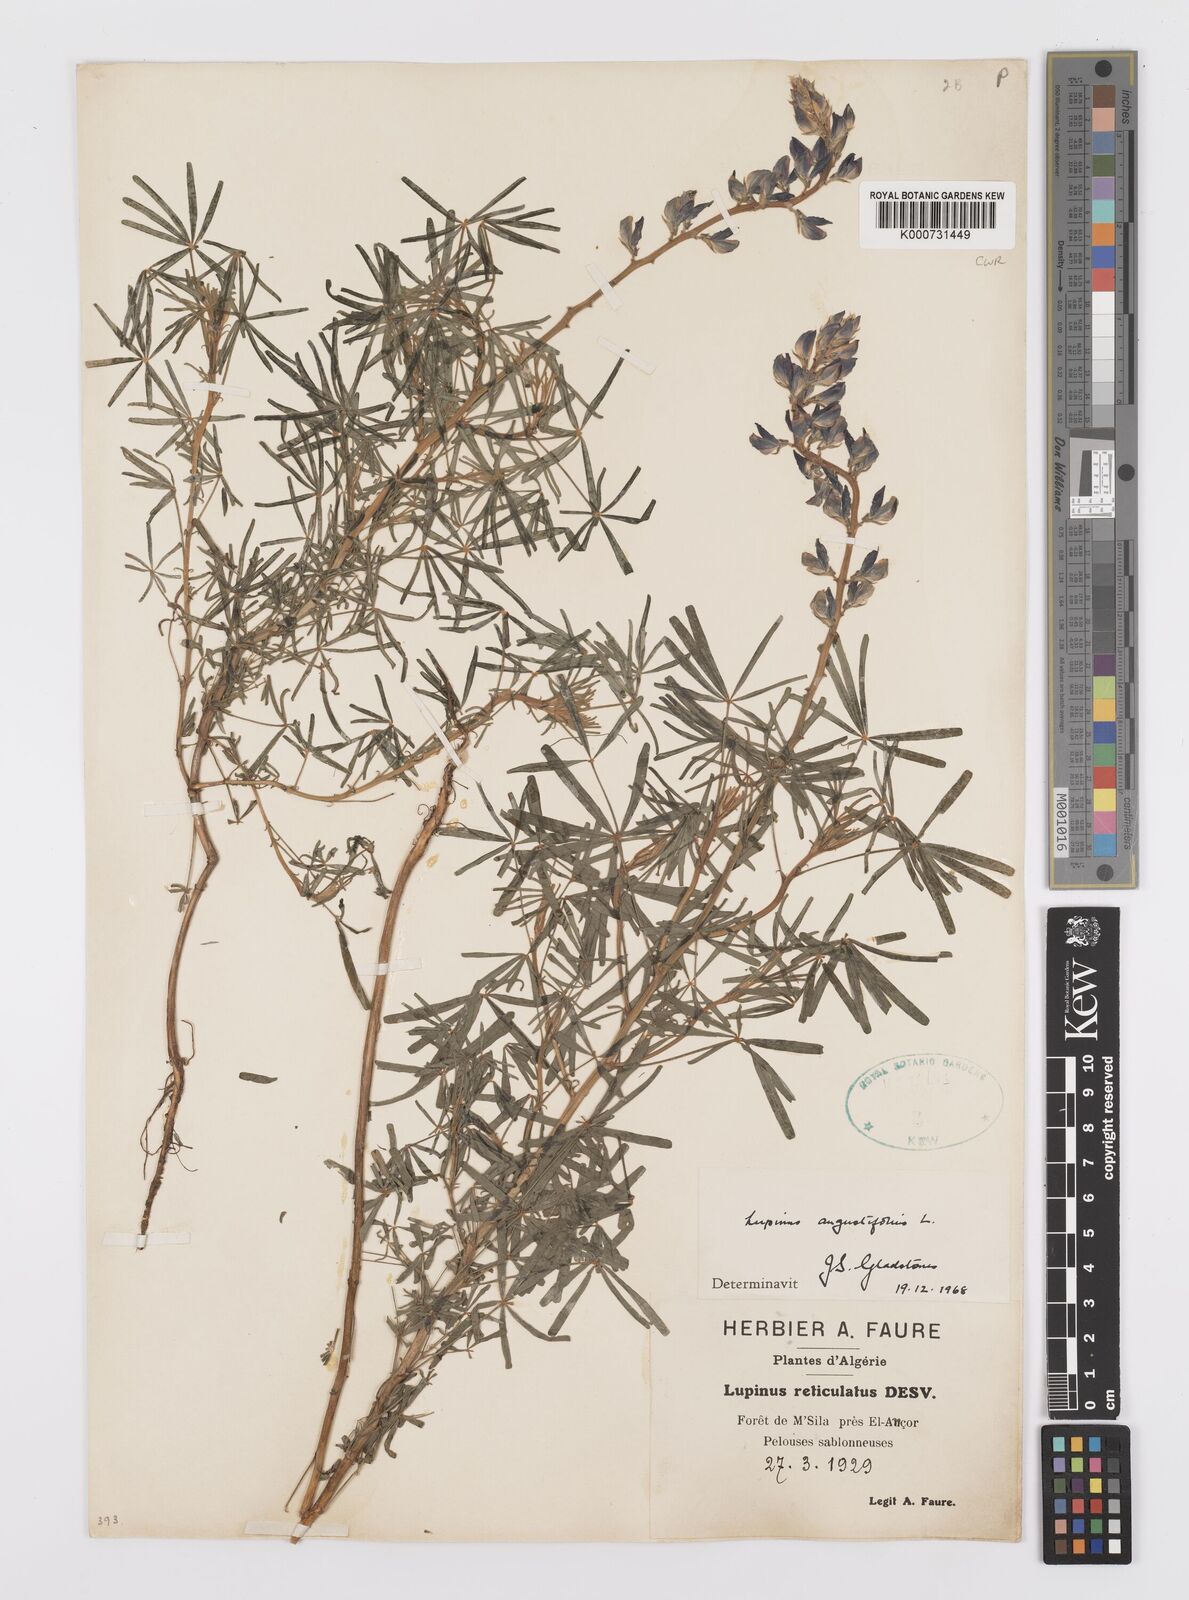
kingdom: Plantae
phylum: Tracheophyta
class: Magnoliopsida
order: Fabales
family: Fabaceae
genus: Lupinus
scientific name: Lupinus angustifolius
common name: Narrow-leaved lupin
